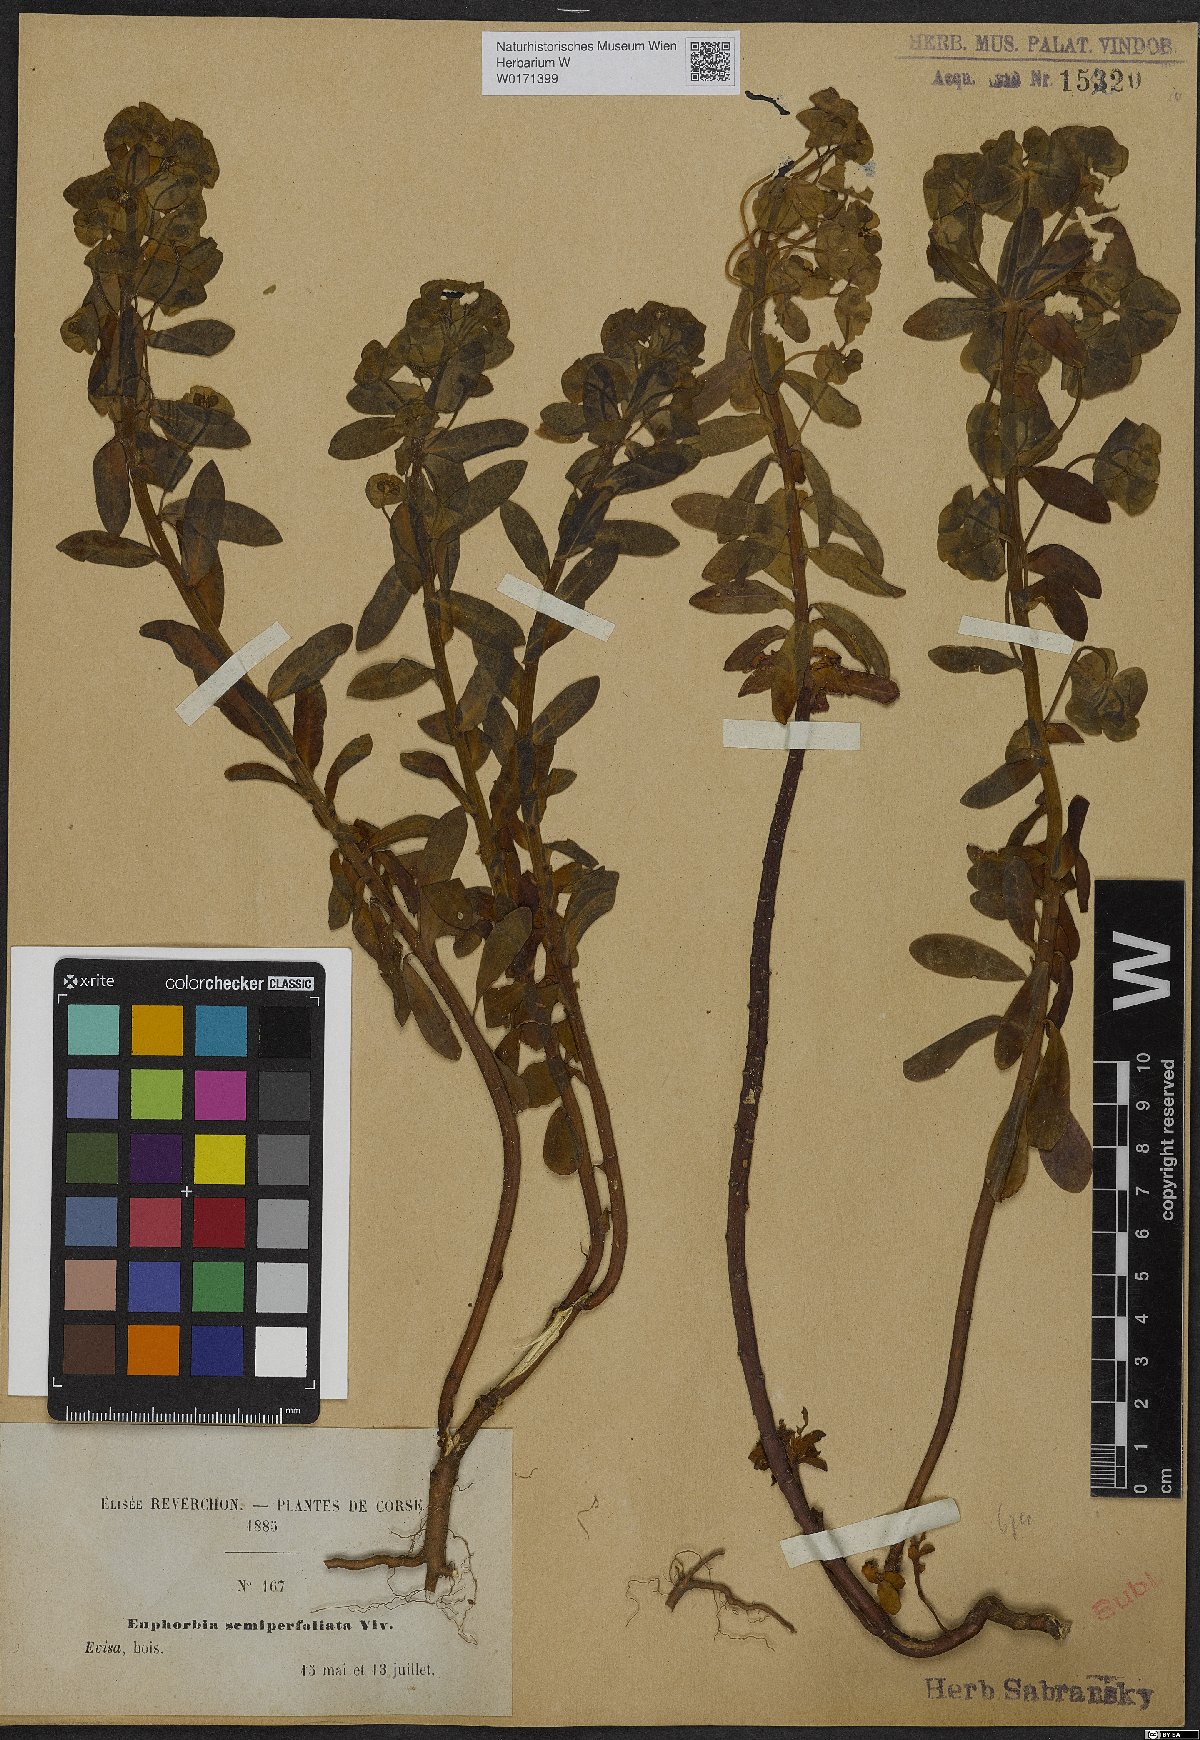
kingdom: Plantae
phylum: Tracheophyta
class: Magnoliopsida
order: Malpighiales
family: Euphorbiaceae
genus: Euphorbia
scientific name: Euphorbia semiperfoliata
